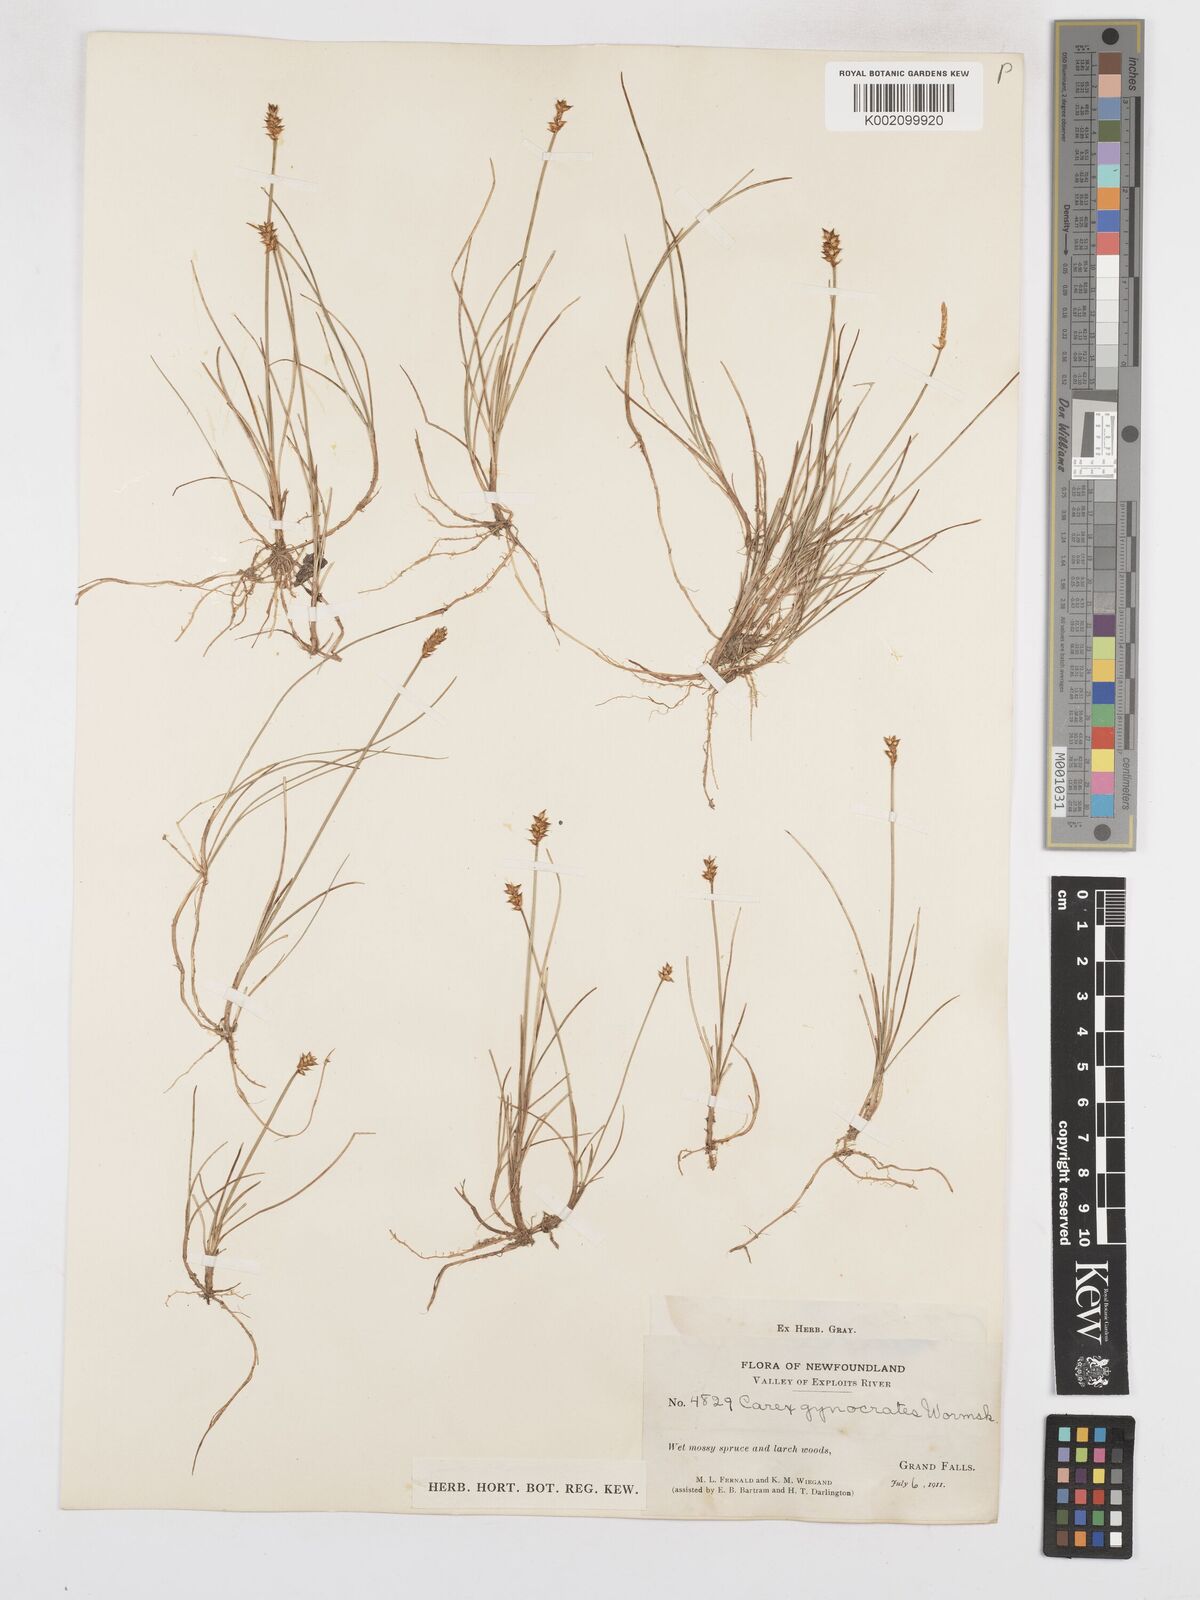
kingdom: Plantae
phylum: Tracheophyta
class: Liliopsida
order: Poales
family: Cyperaceae
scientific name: Cyperaceae
